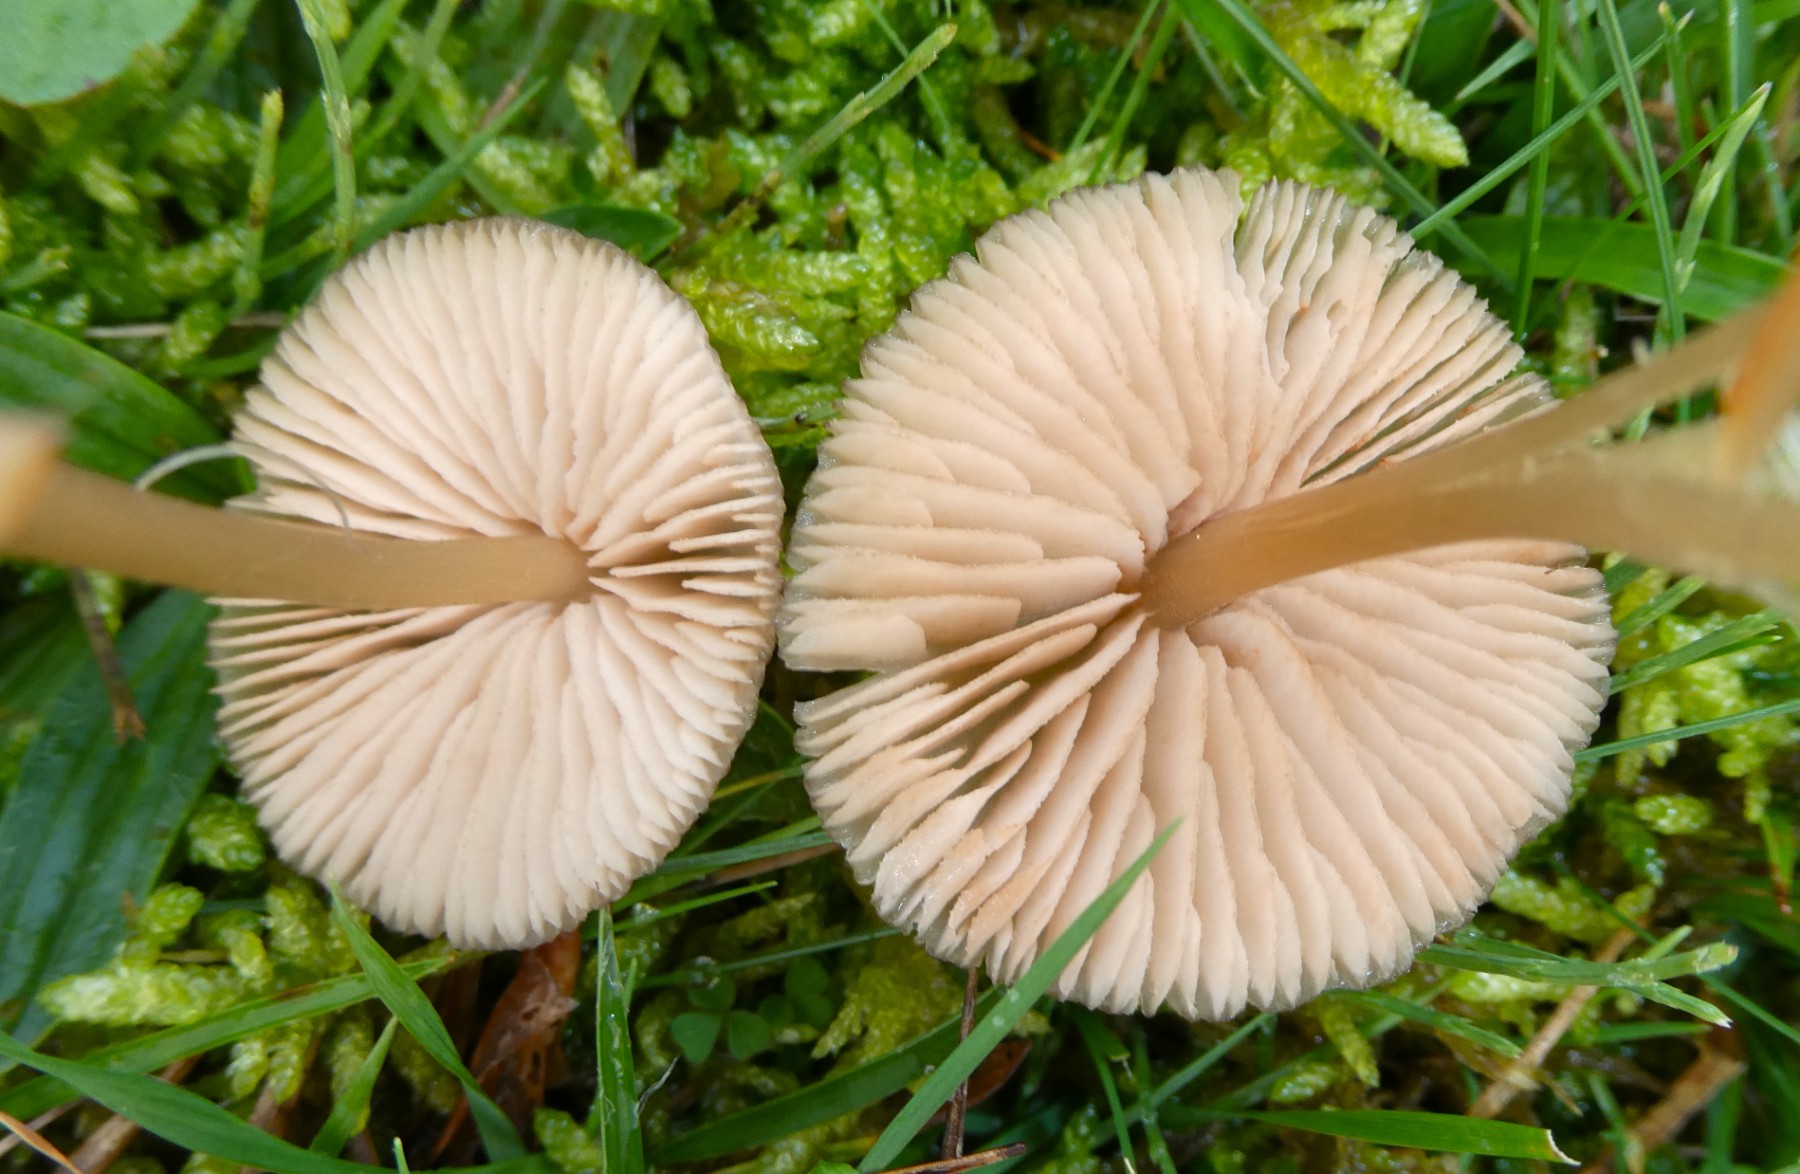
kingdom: Fungi
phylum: Basidiomycota
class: Agaricomycetes
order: Agaricales
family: Entolomataceae
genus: Entoloma
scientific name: Entoloma exile
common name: rødplettet rødblad
